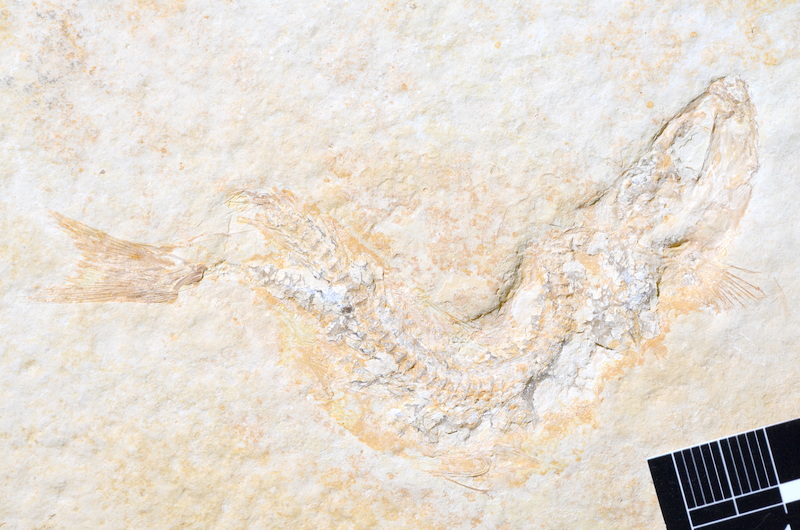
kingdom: Animalia
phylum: Chordata
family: Ascalaboidae
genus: Tharsis
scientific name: Tharsis dubius
